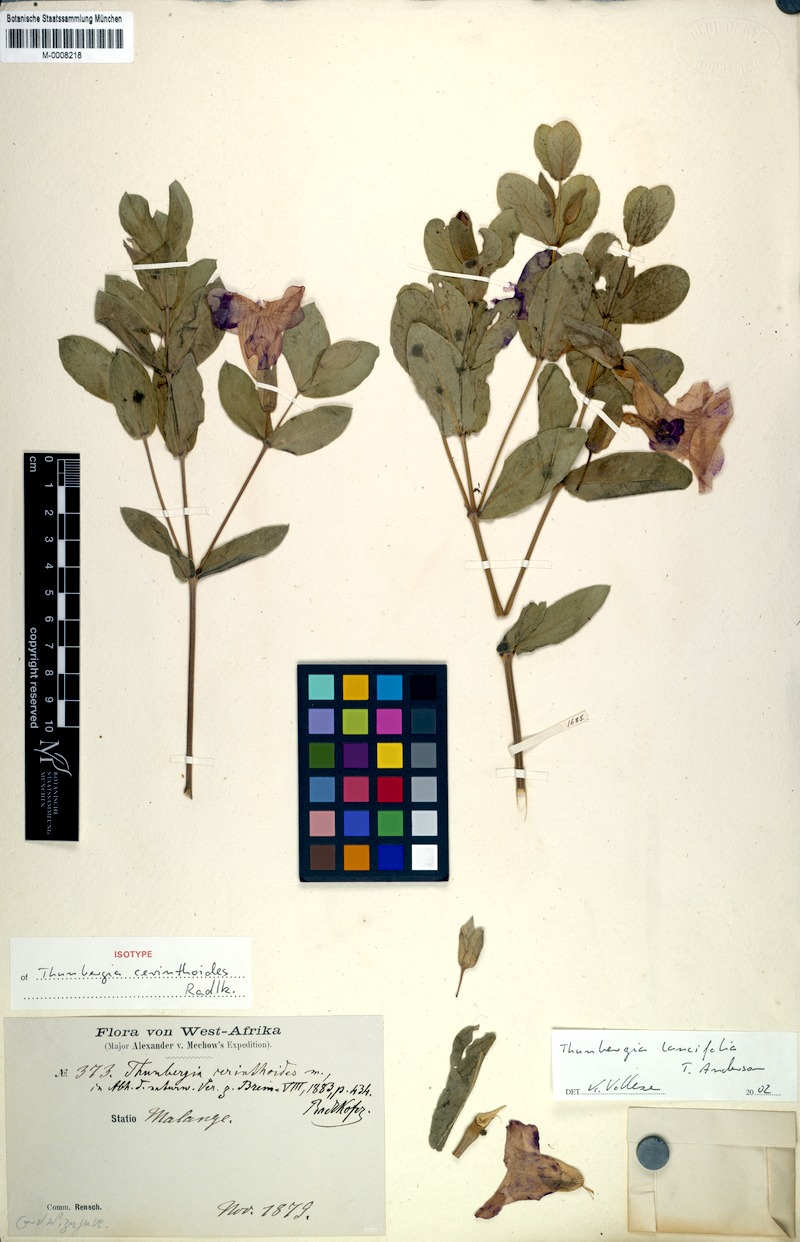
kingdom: Plantae
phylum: Tracheophyta
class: Magnoliopsida
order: Lamiales
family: Acanthaceae
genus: Thunbergia
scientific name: Thunbergia lancifolia
